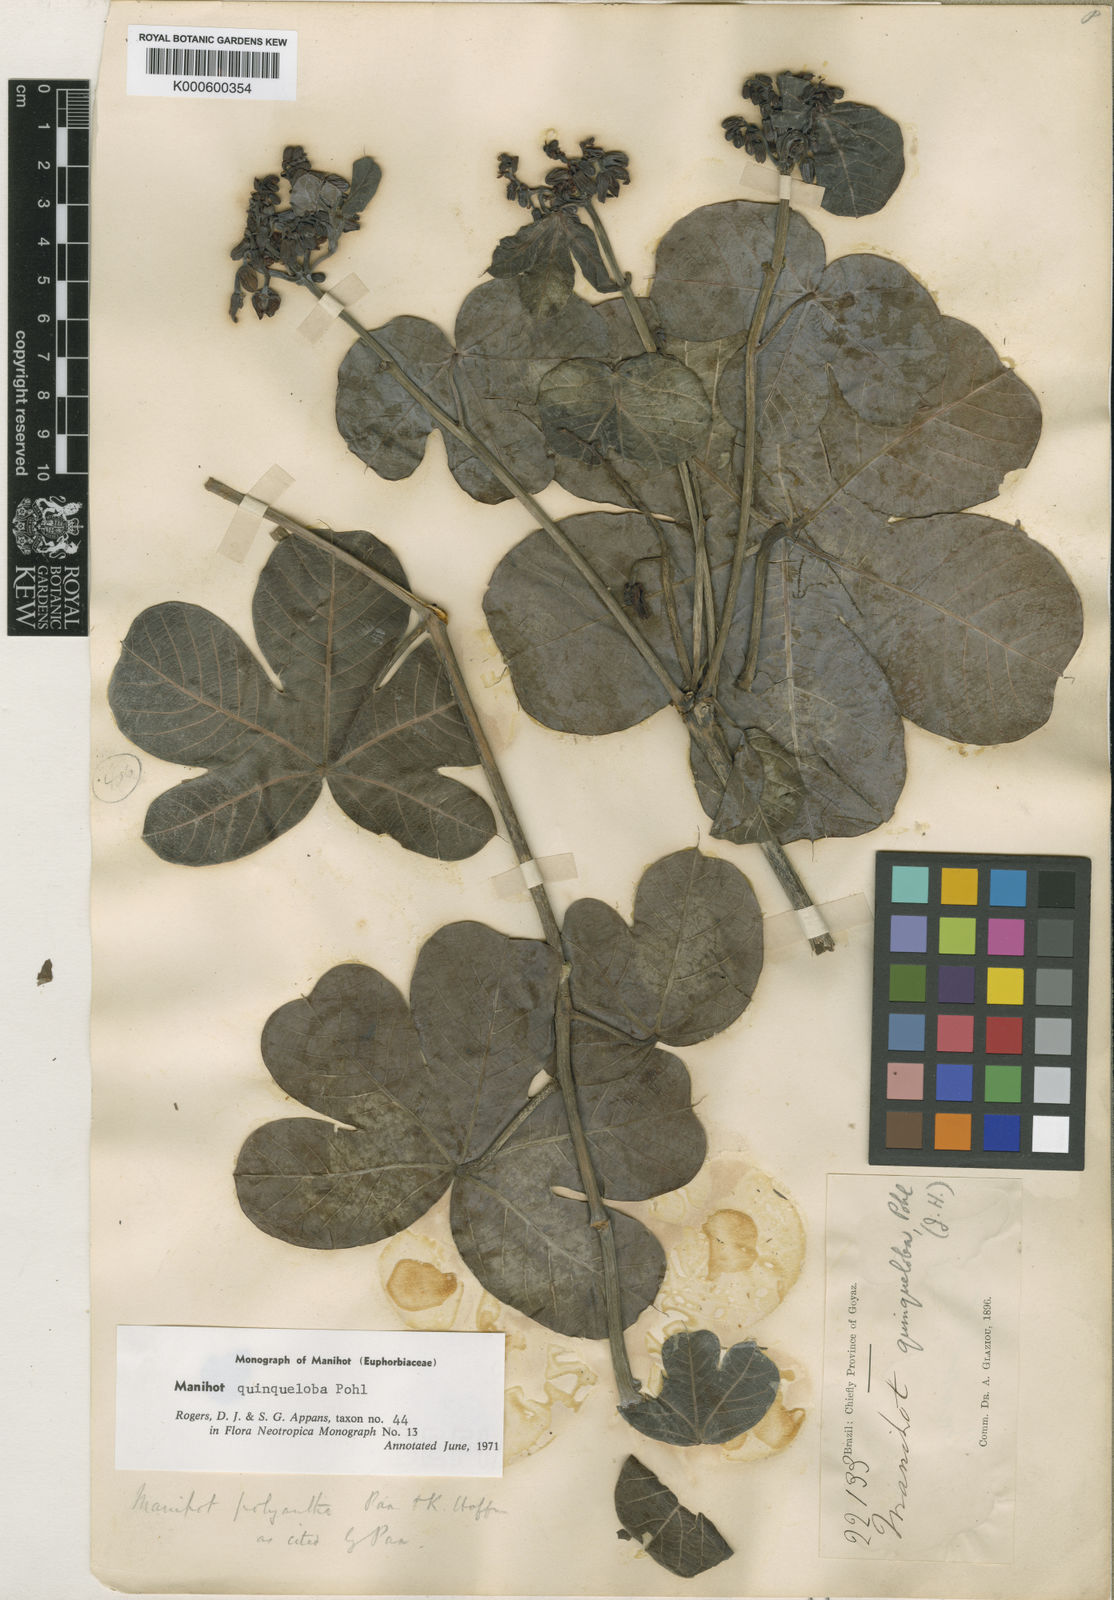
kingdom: Plantae
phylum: Tracheophyta
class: Magnoliopsida
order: Malpighiales
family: Euphorbiaceae
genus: Manihot
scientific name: Manihot quinqueloba
